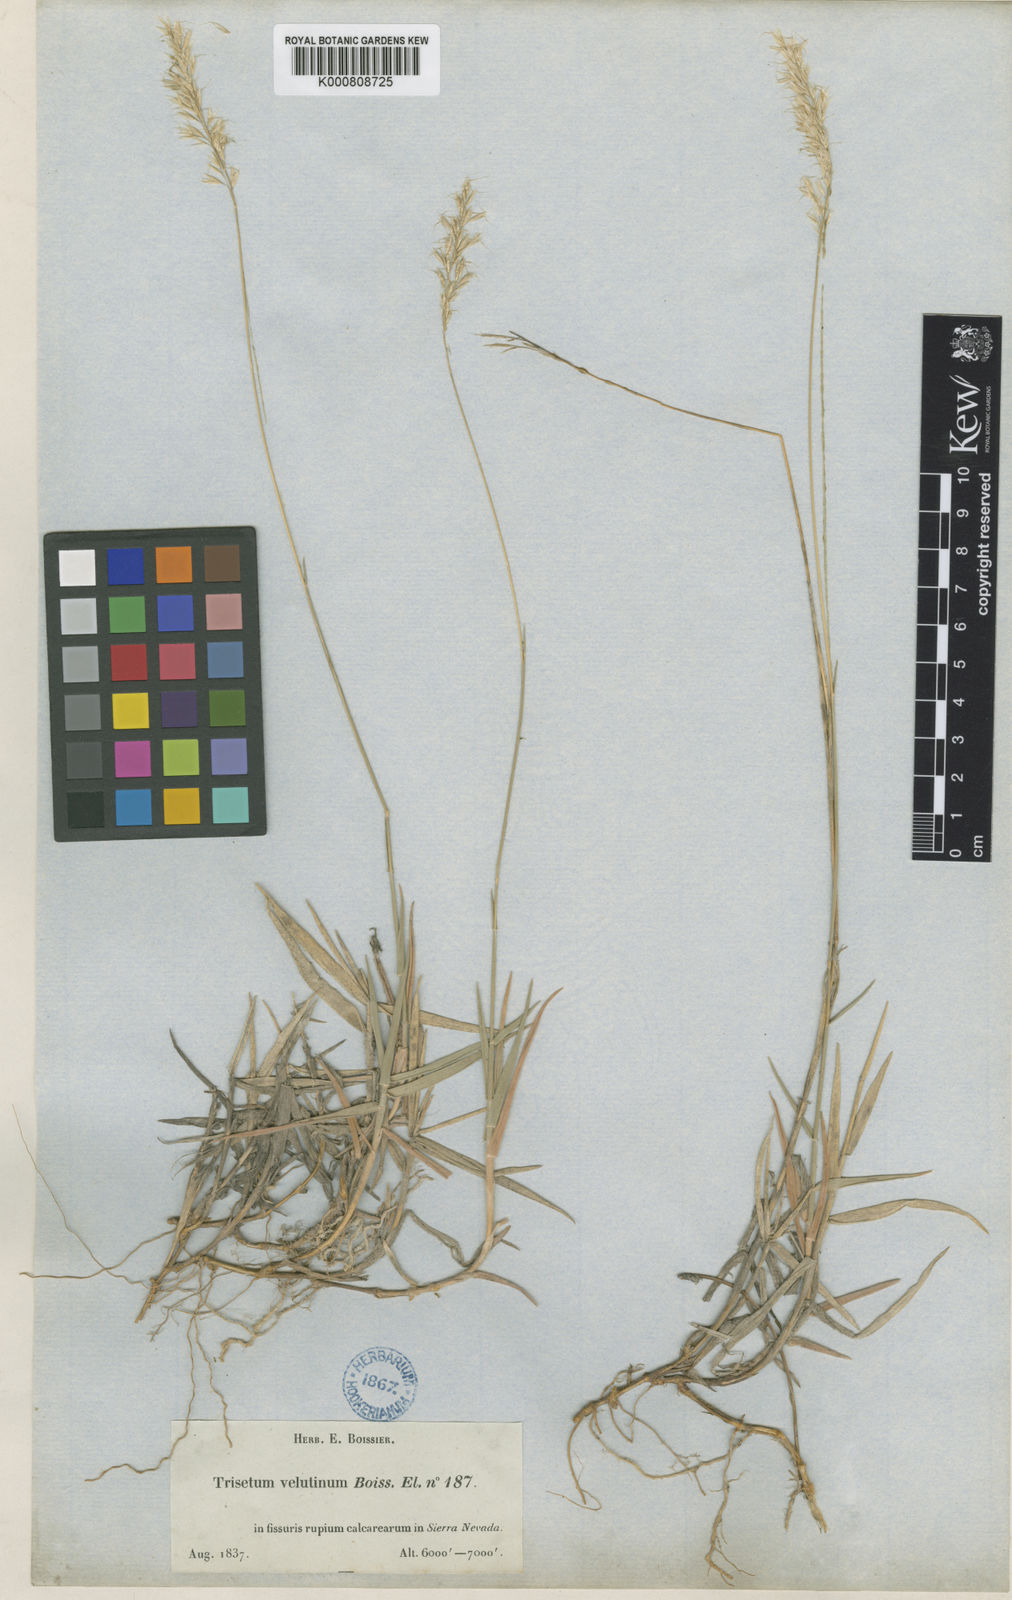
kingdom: Plantae
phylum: Tracheophyta
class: Liliopsida
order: Poales
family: Poaceae
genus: Trisetum
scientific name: Trisetum velutinum
